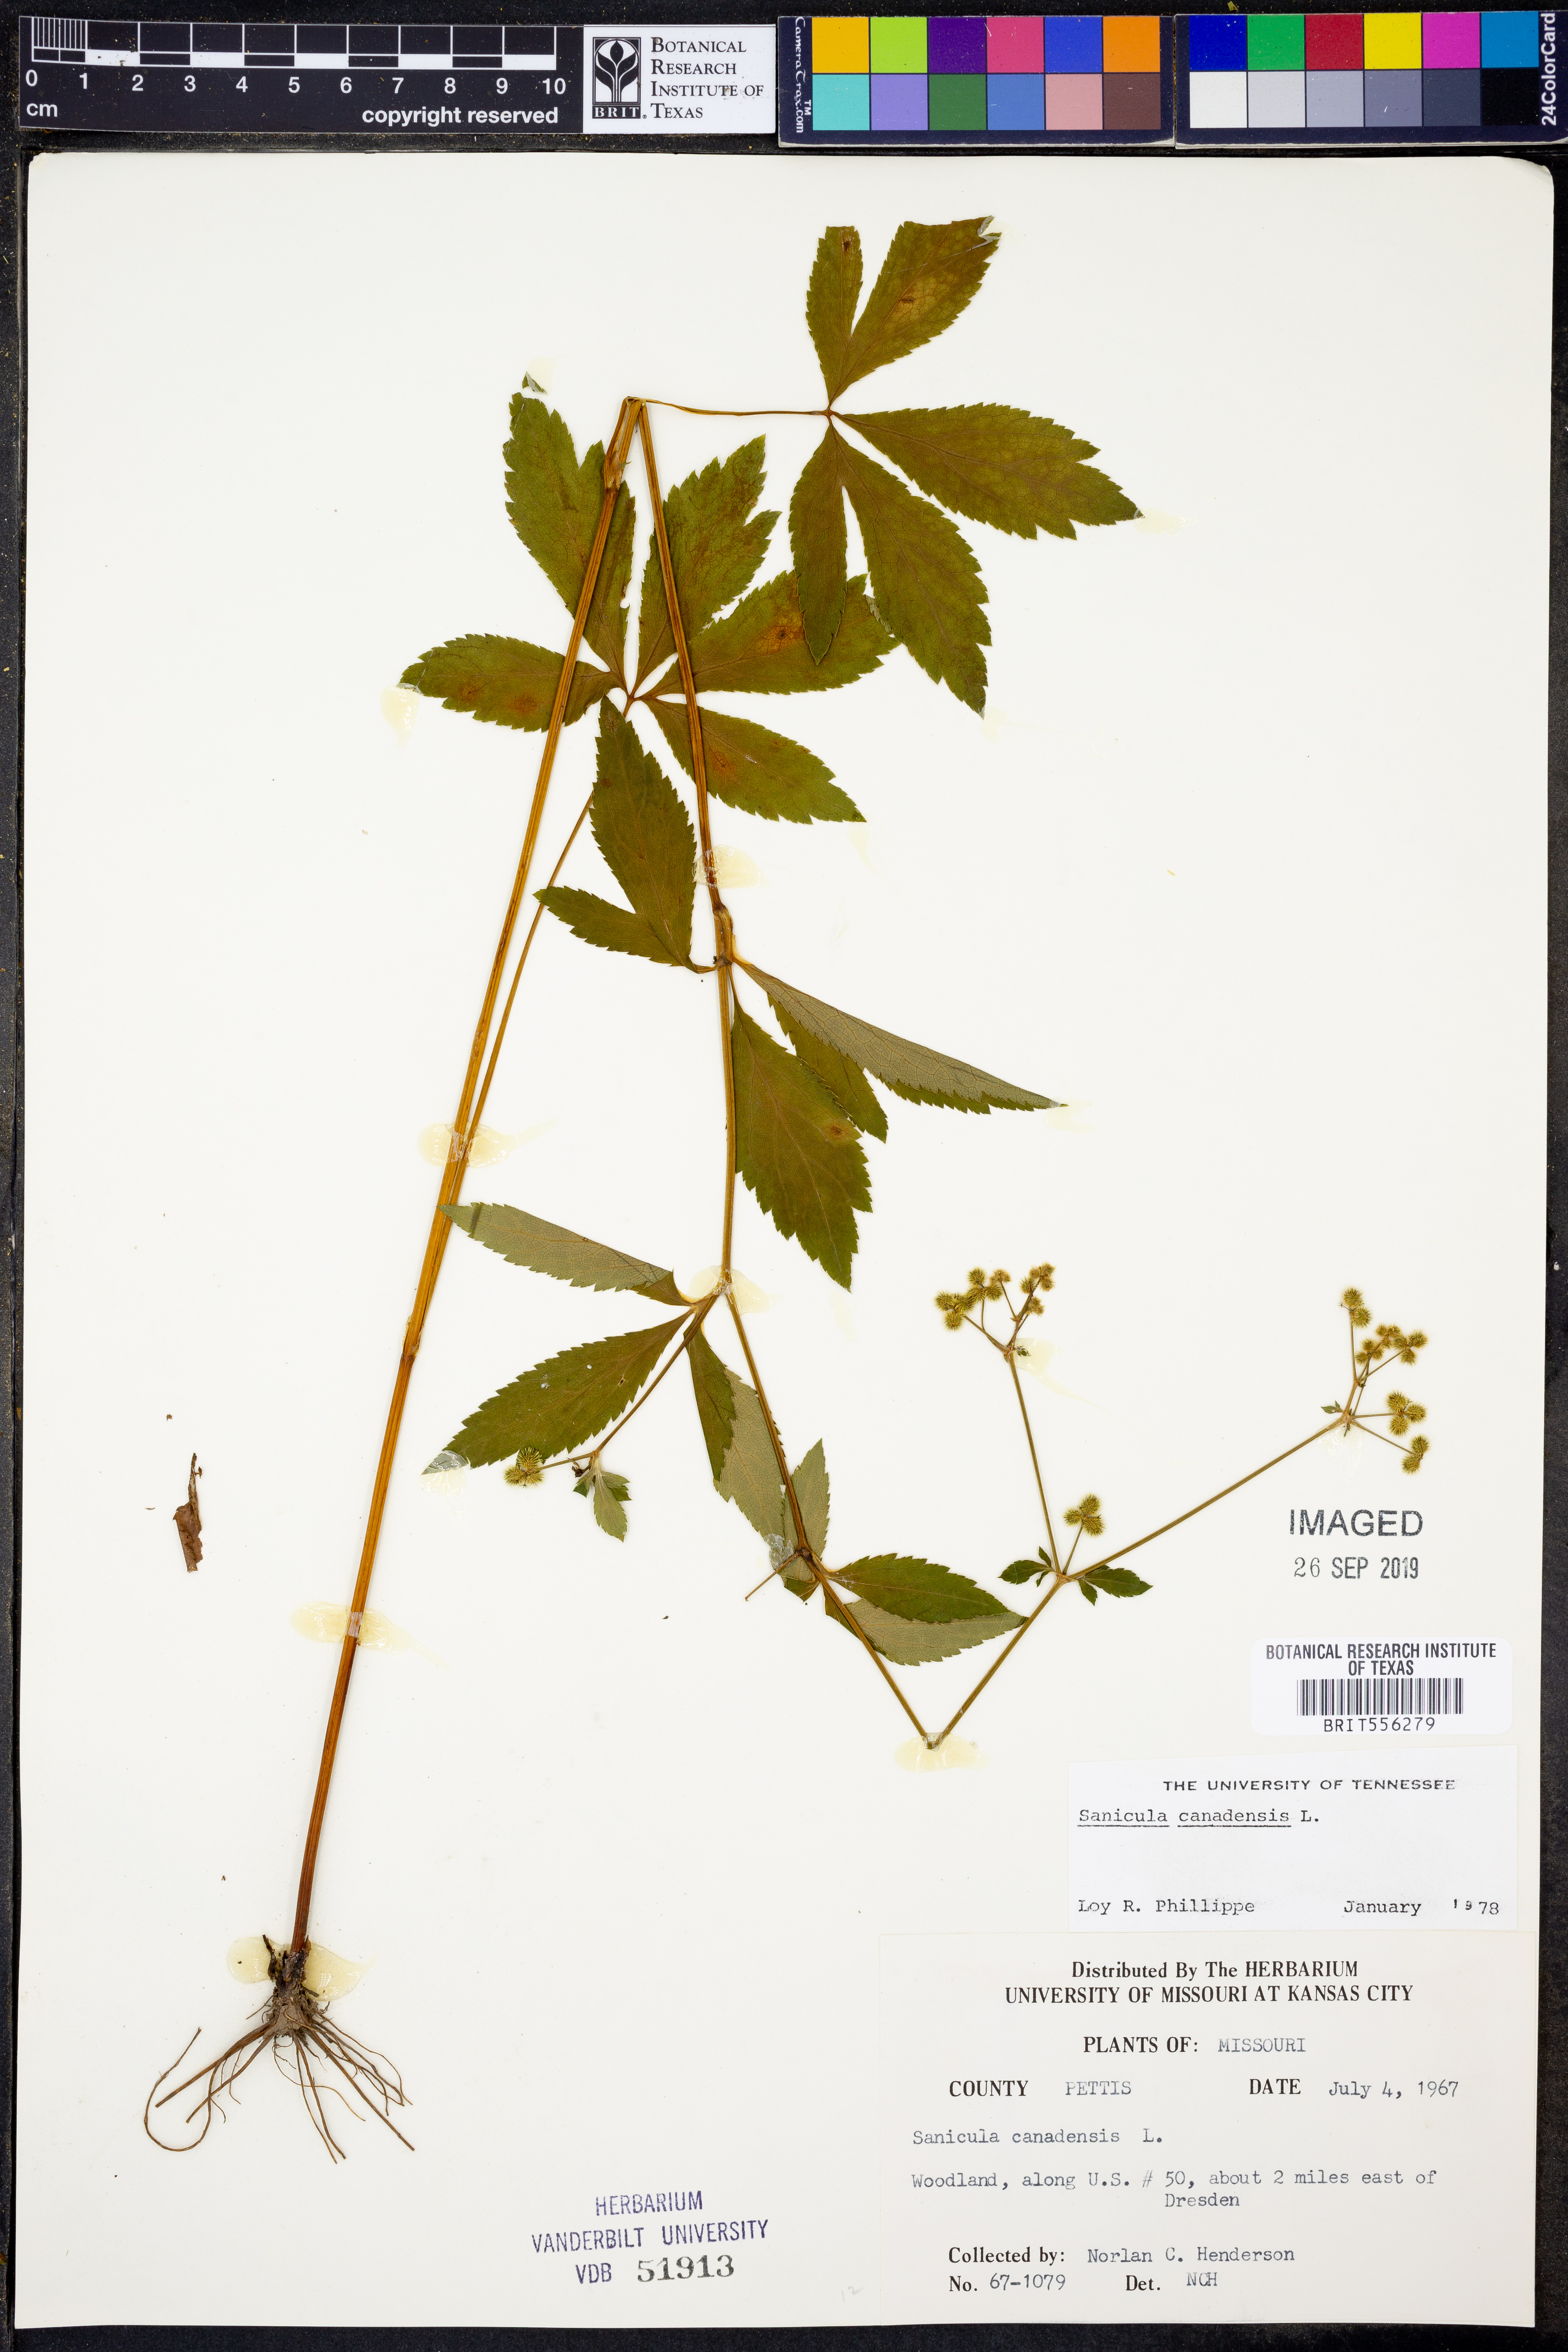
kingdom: Plantae
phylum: Tracheophyta
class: Magnoliopsida
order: Apiales
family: Apiaceae
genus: Sanicula
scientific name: Sanicula canadensis
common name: Canada sanicle
